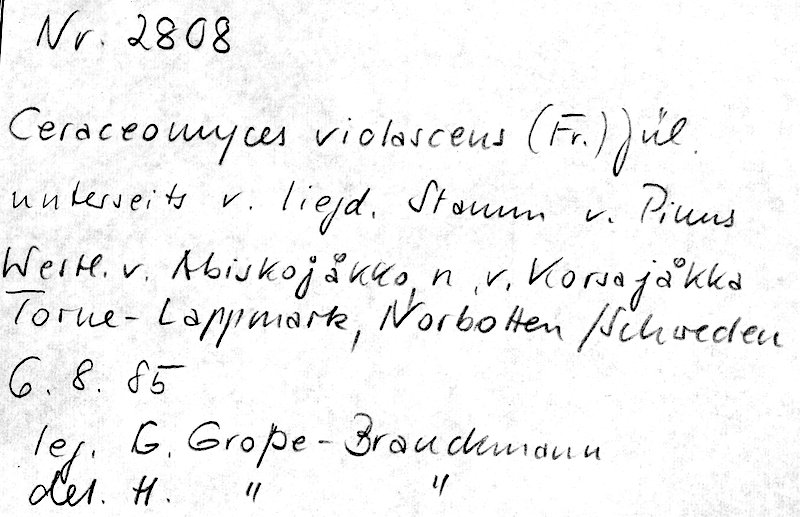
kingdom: Fungi
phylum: Basidiomycota
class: Agaricomycetes
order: Polyporales
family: Phanerochaetaceae
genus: Rhizochaete
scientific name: Rhizochaete violascens
